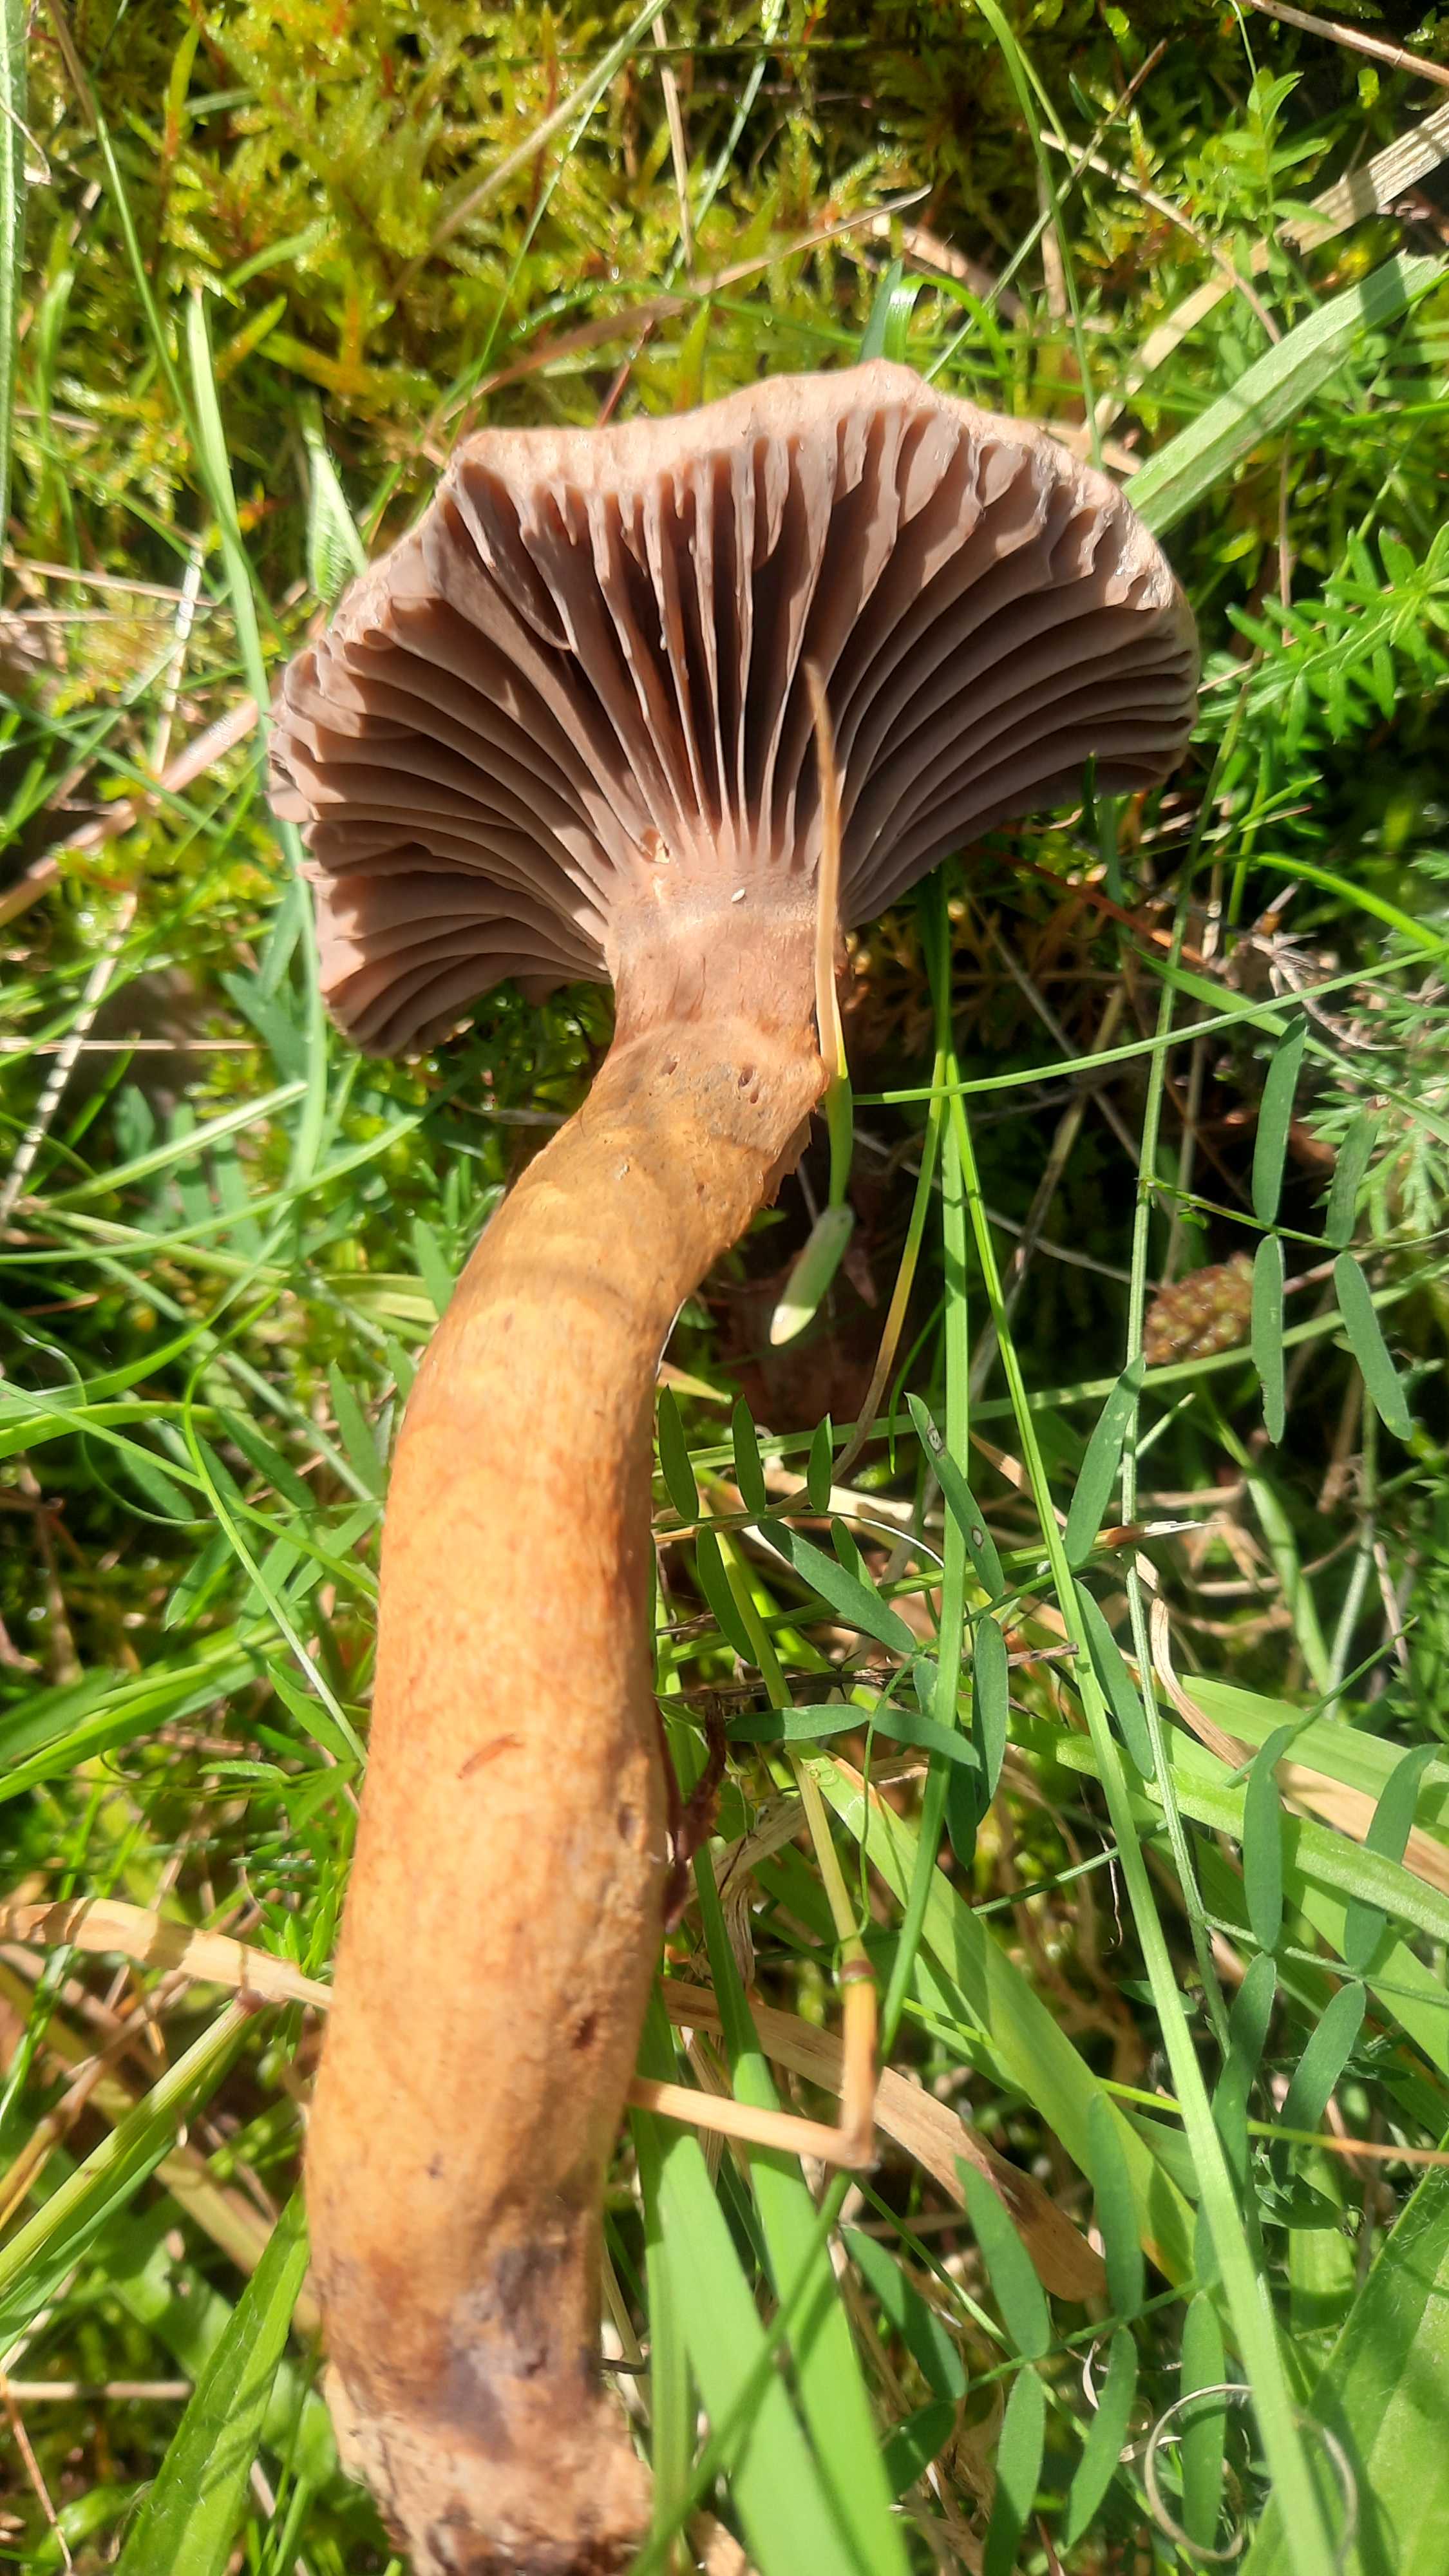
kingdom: Fungi
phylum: Basidiomycota
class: Agaricomycetes
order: Boletales
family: Gomphidiaceae
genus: Chroogomphus
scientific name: Chroogomphus rutilus
